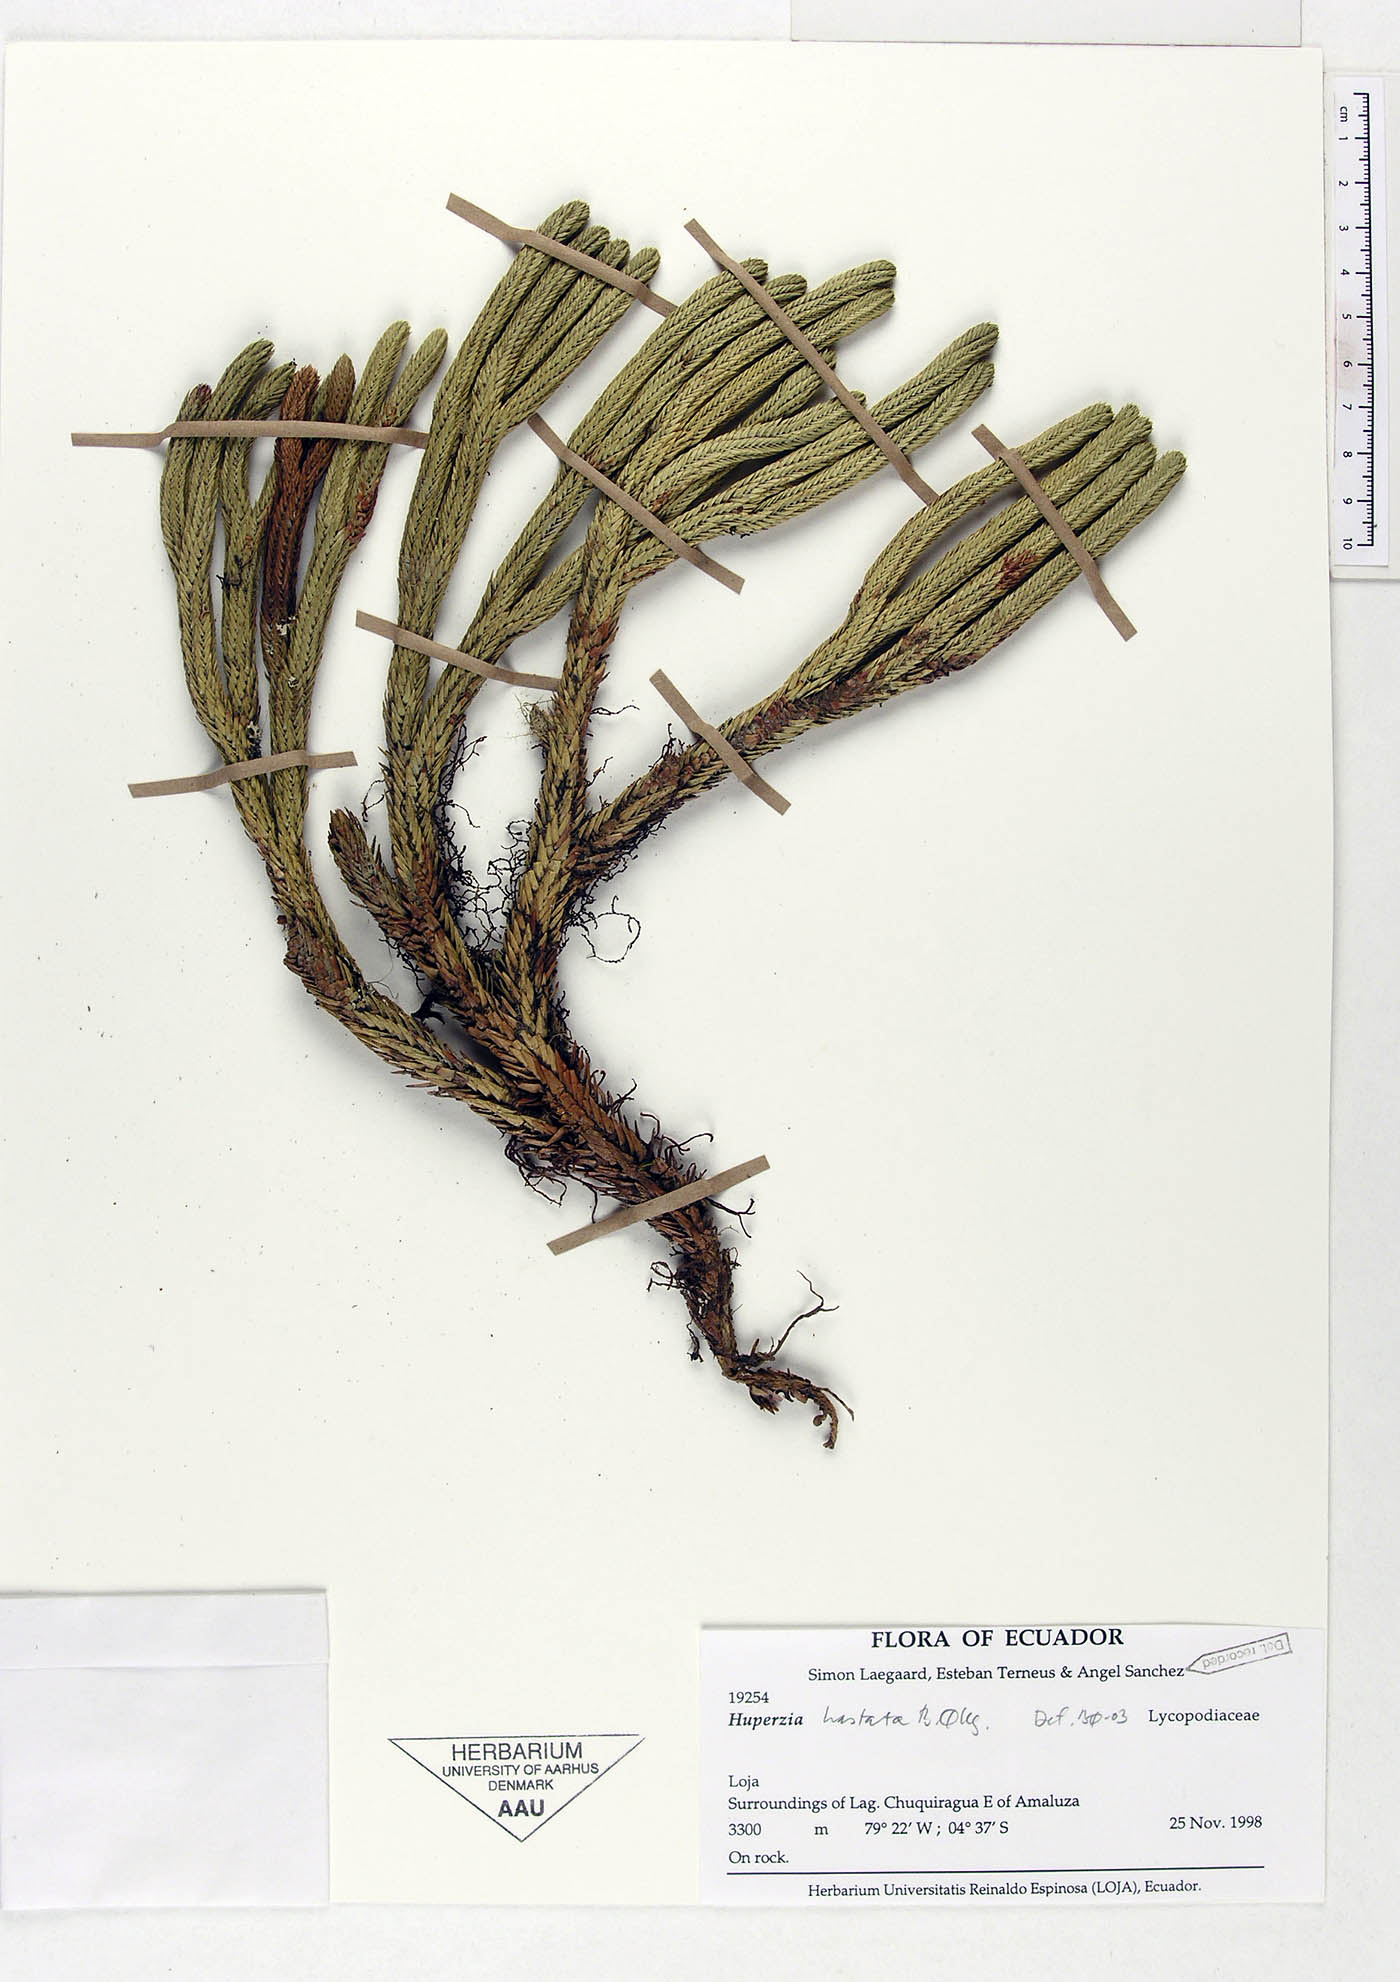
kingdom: Plantae
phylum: Tracheophyta
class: Lycopodiopsida
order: Lycopodiales
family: Lycopodiaceae
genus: Phlegmariurus
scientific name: Phlegmariurus hastatus
